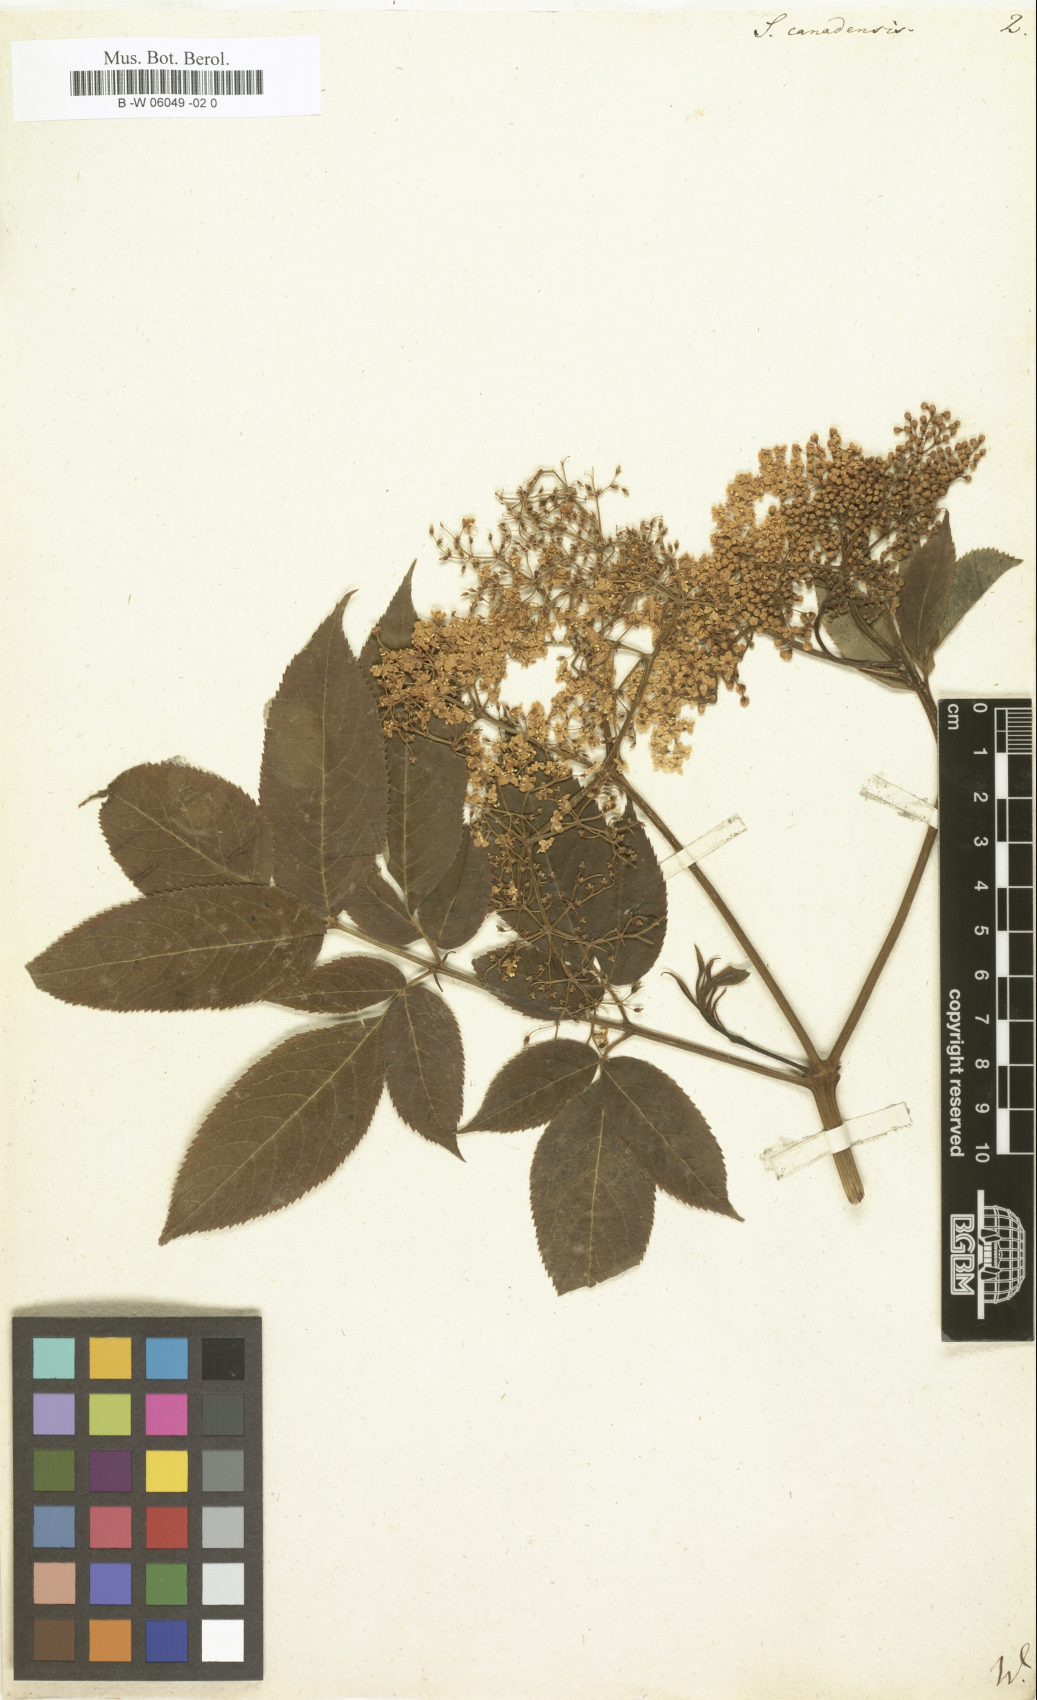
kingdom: Plantae
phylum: Tracheophyta
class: Magnoliopsida
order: Dipsacales
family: Viburnaceae
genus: Sambucus
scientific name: Sambucus canadensis
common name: American elder
